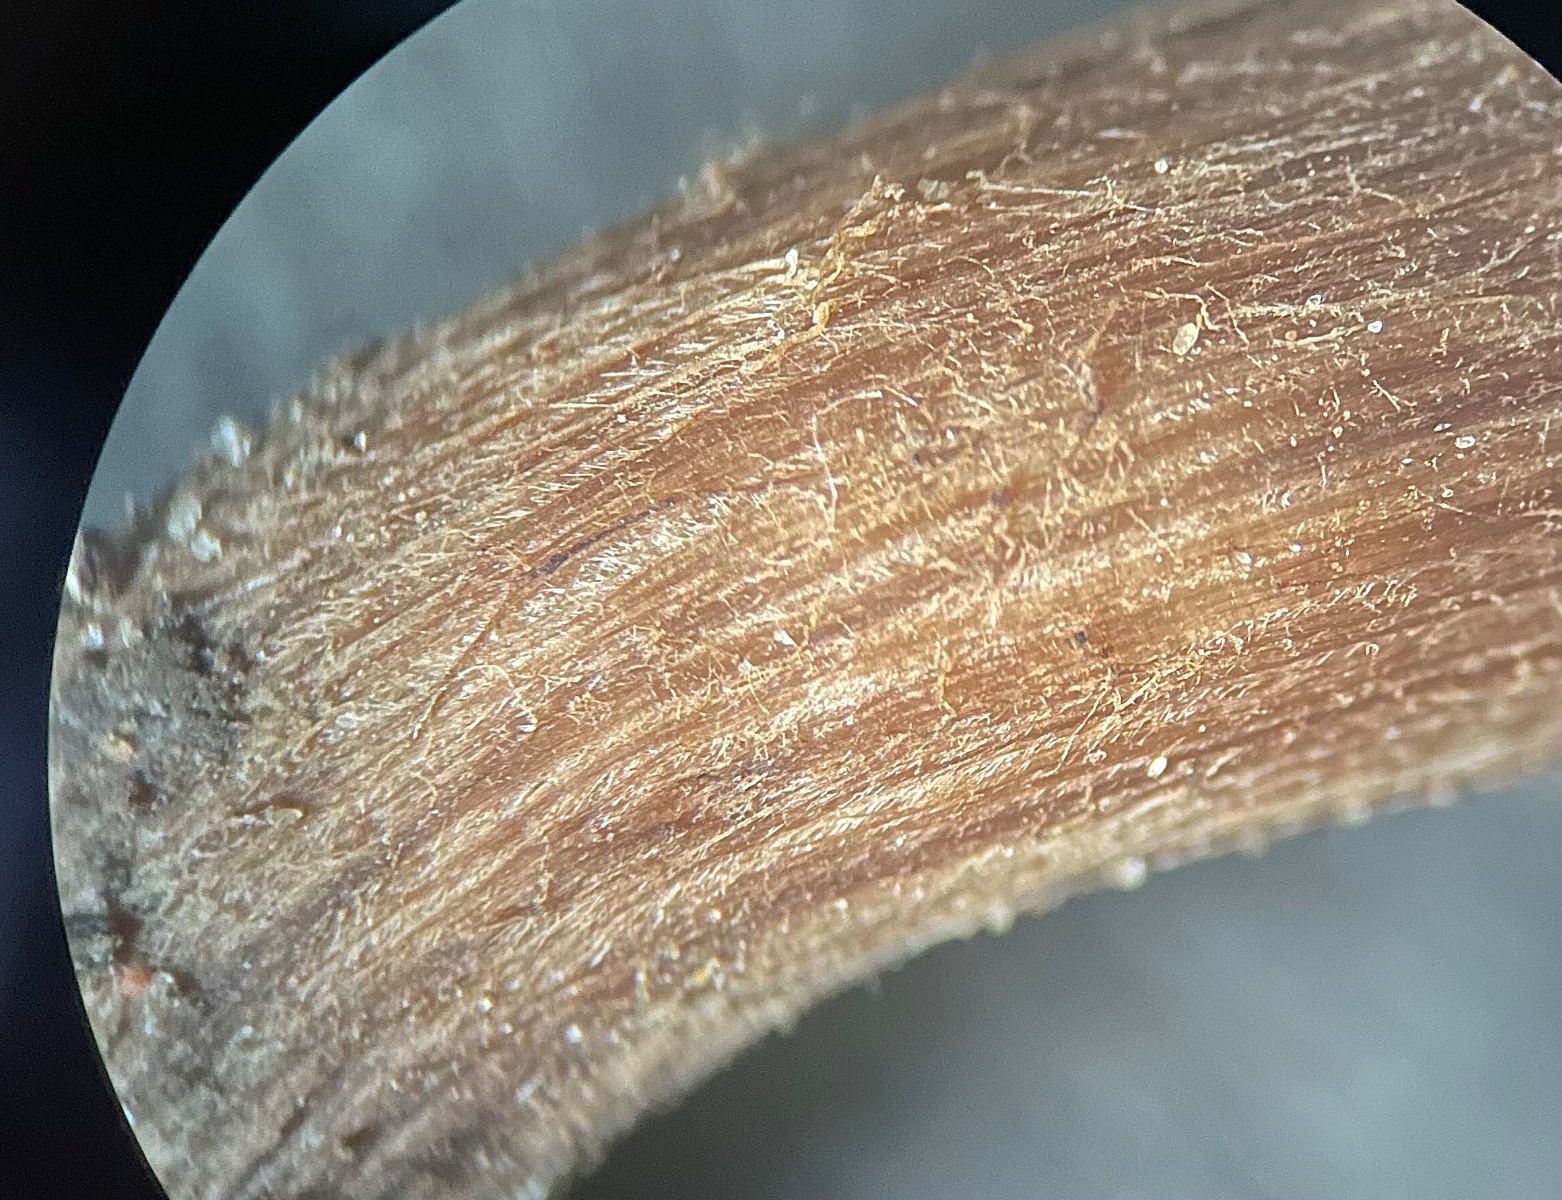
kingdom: Fungi
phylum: Basidiomycota
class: Agaricomycetes
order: Agaricales
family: Inocybaceae
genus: Inocybe
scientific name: Inocybe
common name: trævlhat
